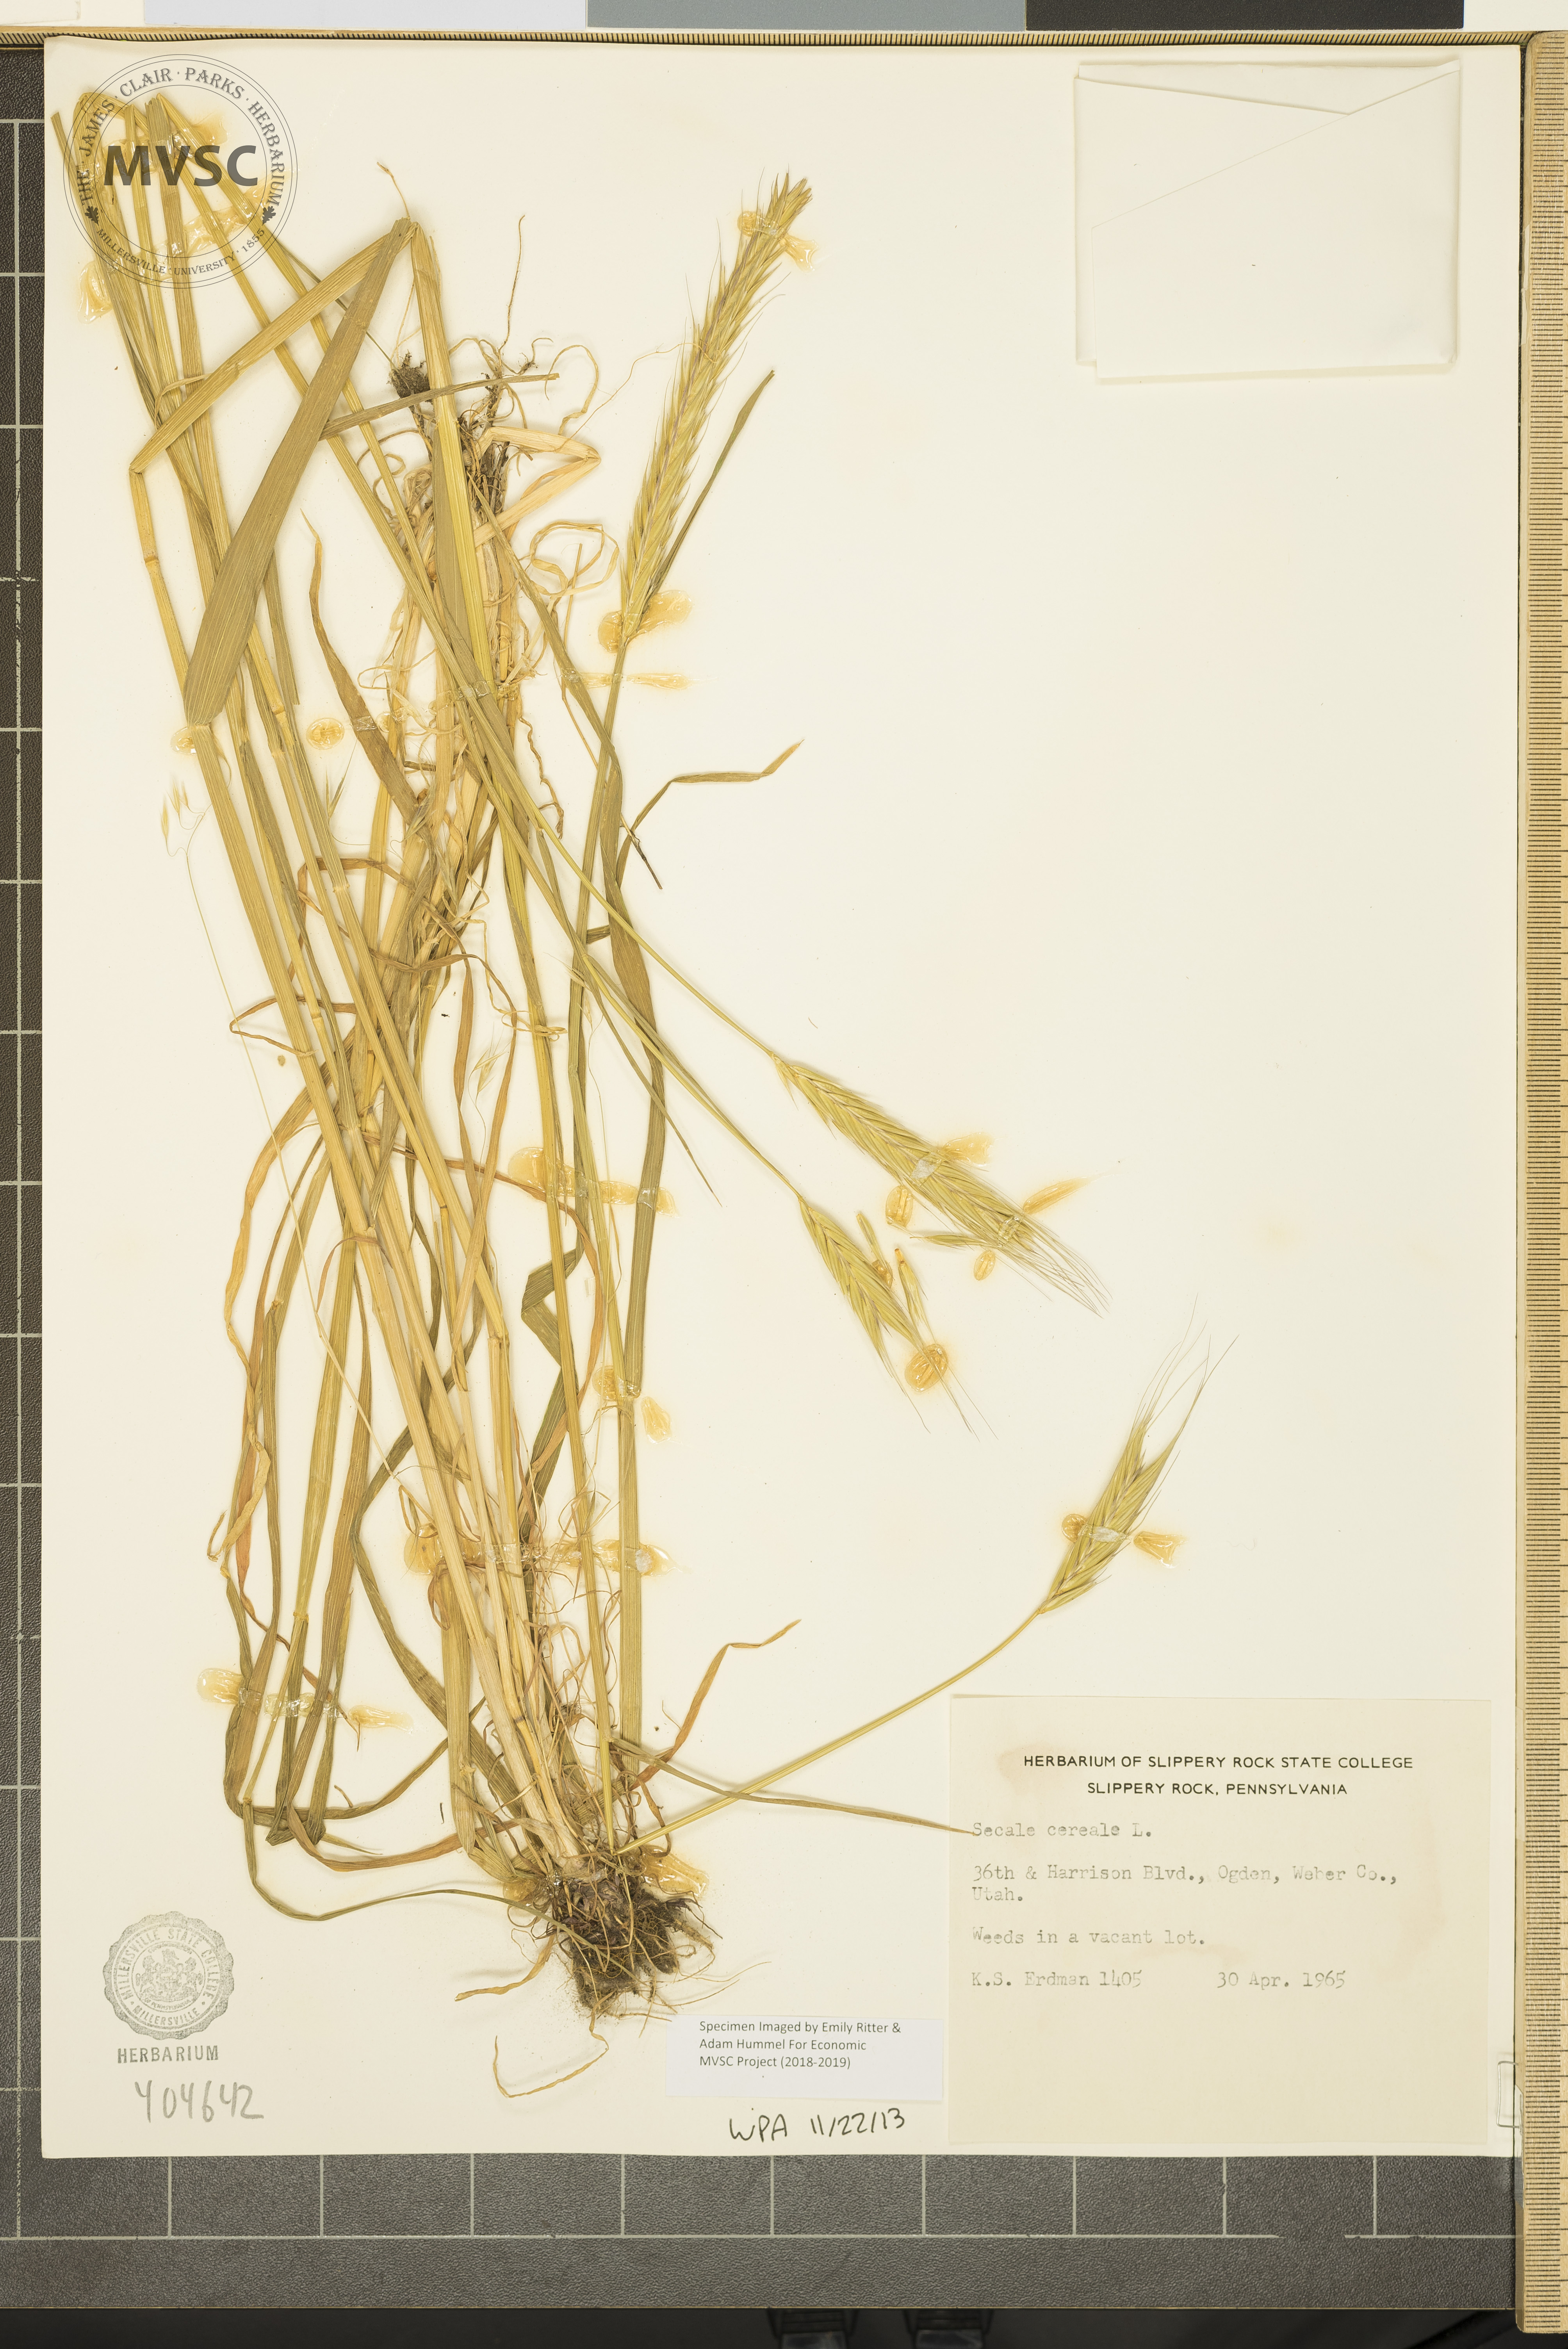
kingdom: Plantae
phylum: Tracheophyta
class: Liliopsida
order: Poales
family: Poaceae
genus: Secale
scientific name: Secale cereale
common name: rye
